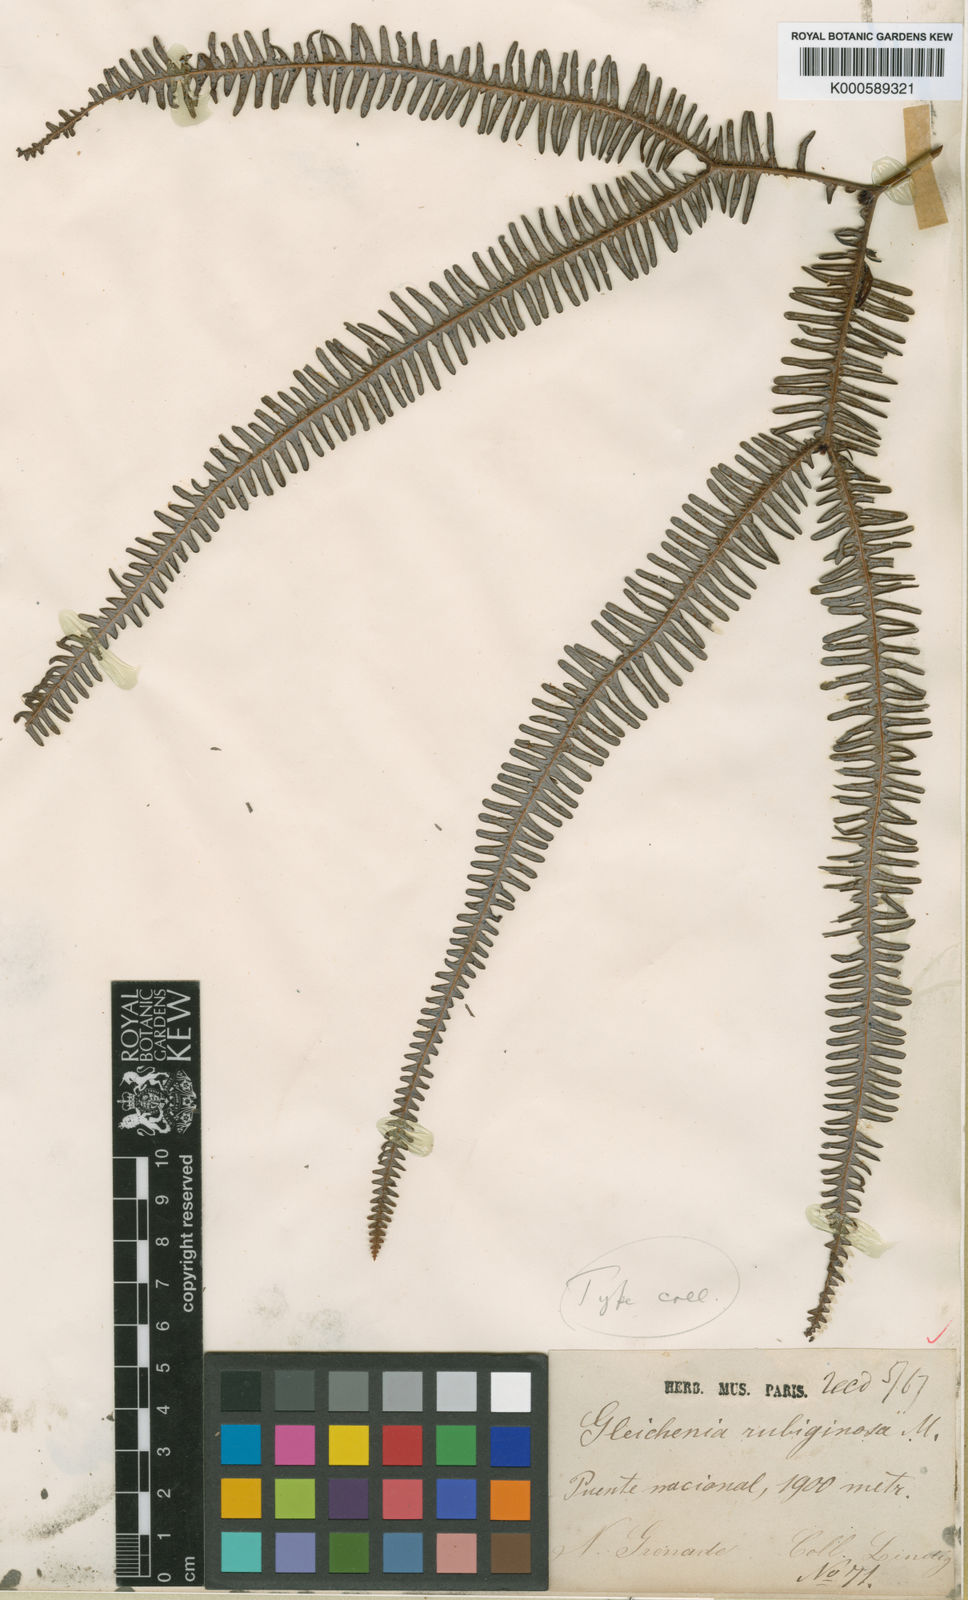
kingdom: Plantae
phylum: Tracheophyta
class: Polypodiopsida
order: Gleicheniales
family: Gleicheniaceae
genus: Sticherus
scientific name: Sticherus pruinosus
